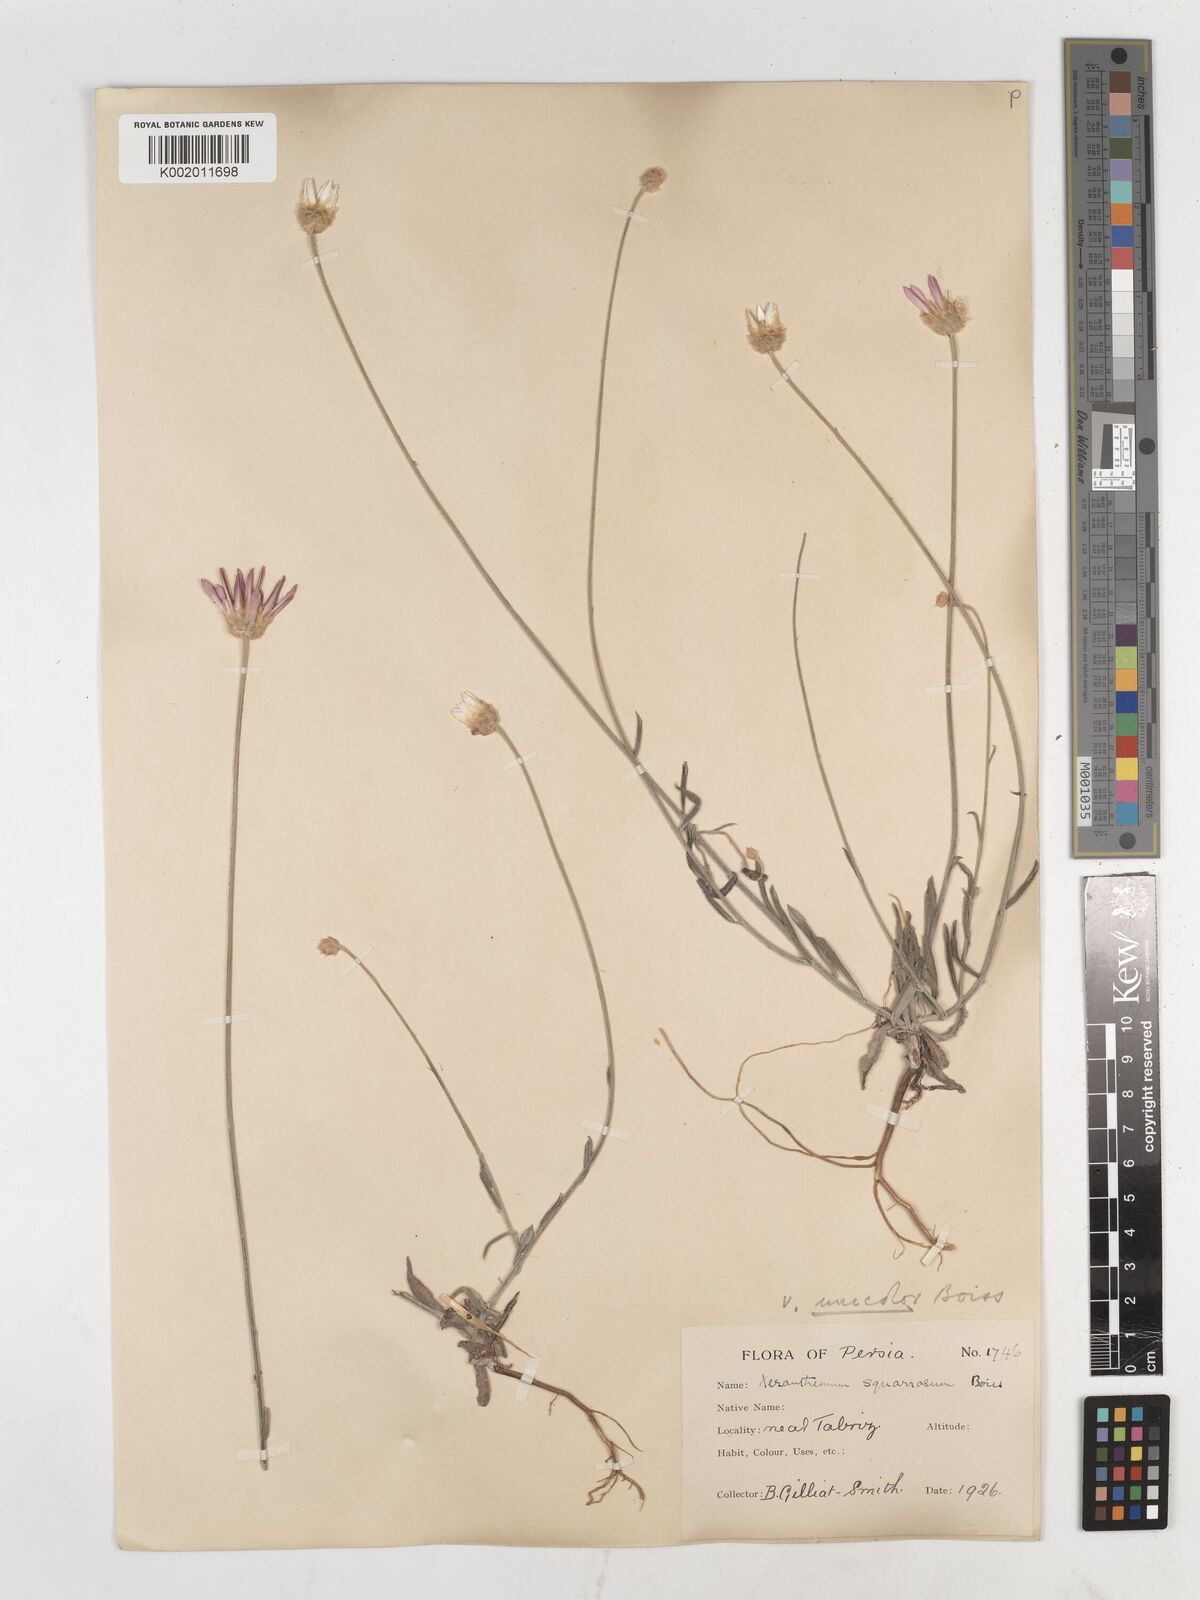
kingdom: Plantae
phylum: Tracheophyta
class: Magnoliopsida
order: Asterales
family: Asteraceae
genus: Xeranthemum
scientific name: Xeranthemum squarrosum
